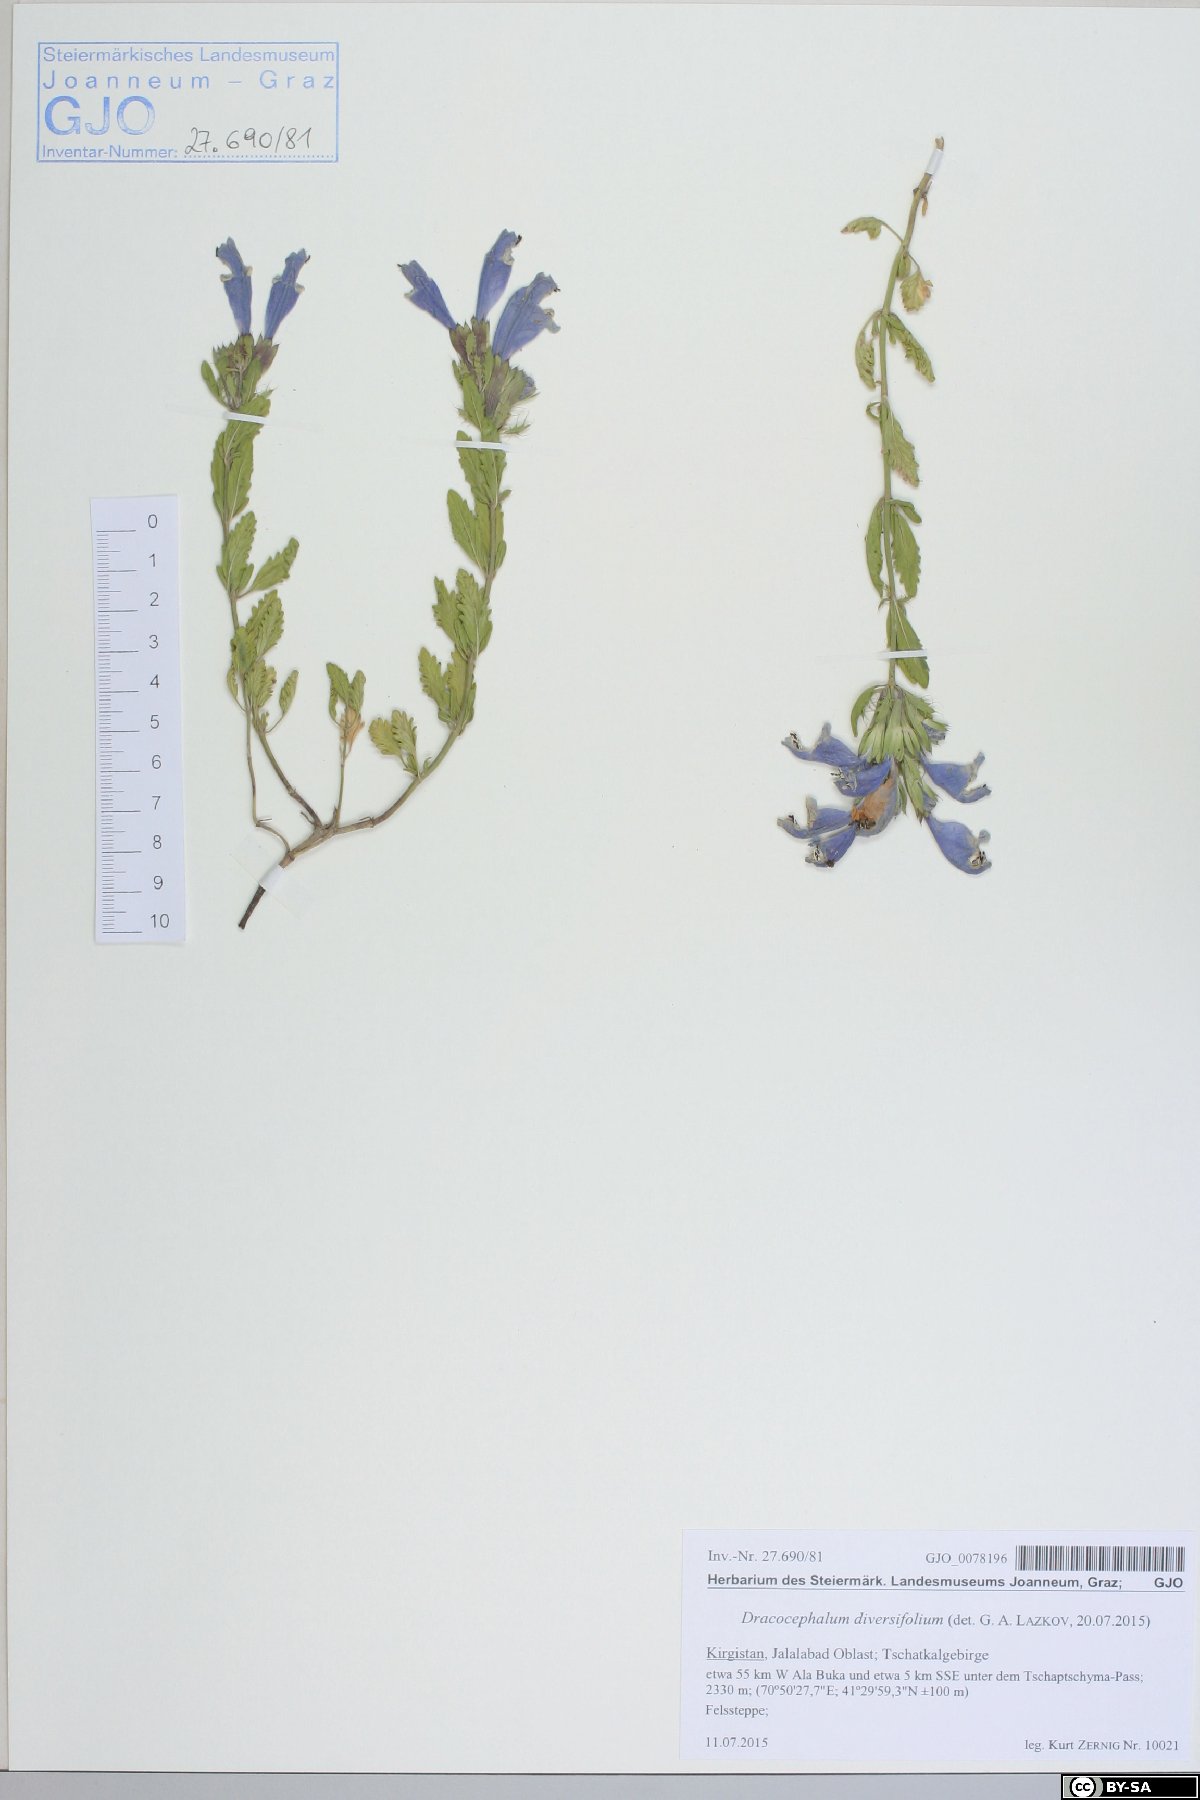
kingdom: Plantae
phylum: Tracheophyta
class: Magnoliopsida
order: Lamiales
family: Lamiaceae
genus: Dracocephalum
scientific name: Dracocephalum diversifolium
